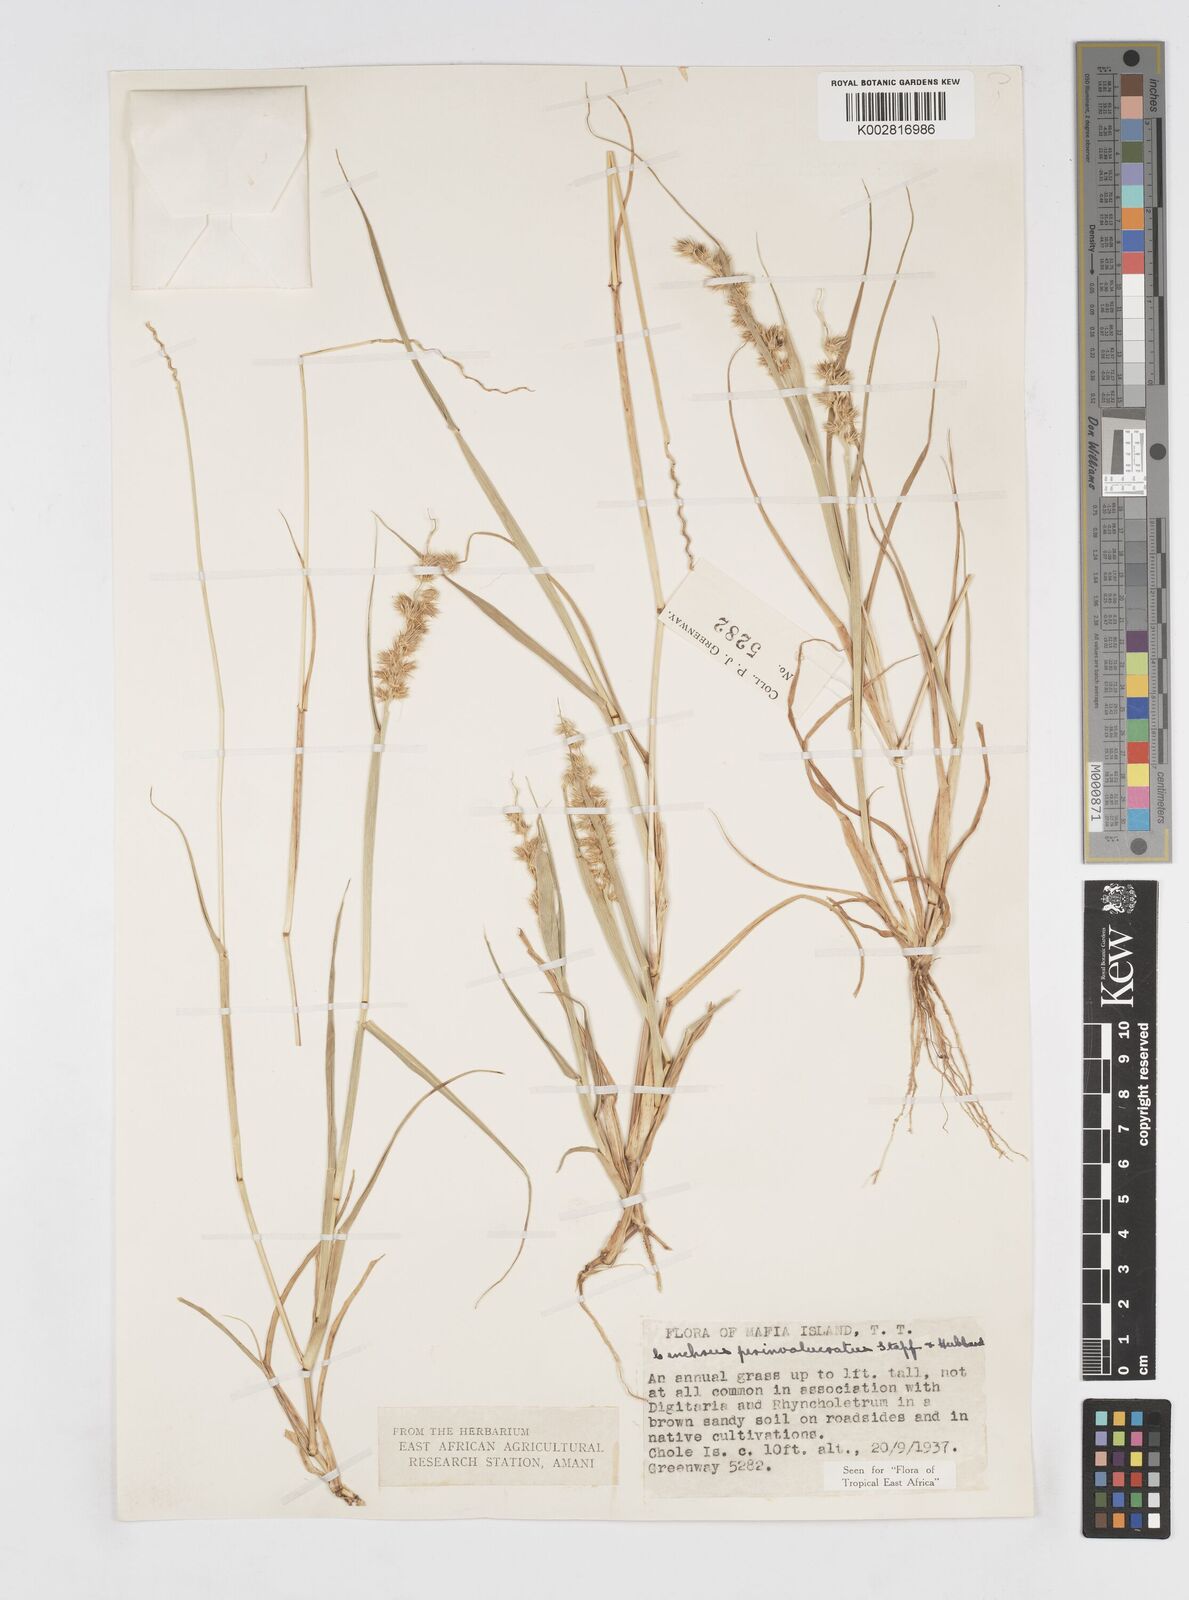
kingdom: Plantae
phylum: Tracheophyta
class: Liliopsida
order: Poales
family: Poaceae
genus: Cenchrus
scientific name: Cenchrus biflorus
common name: Indian sandbur
